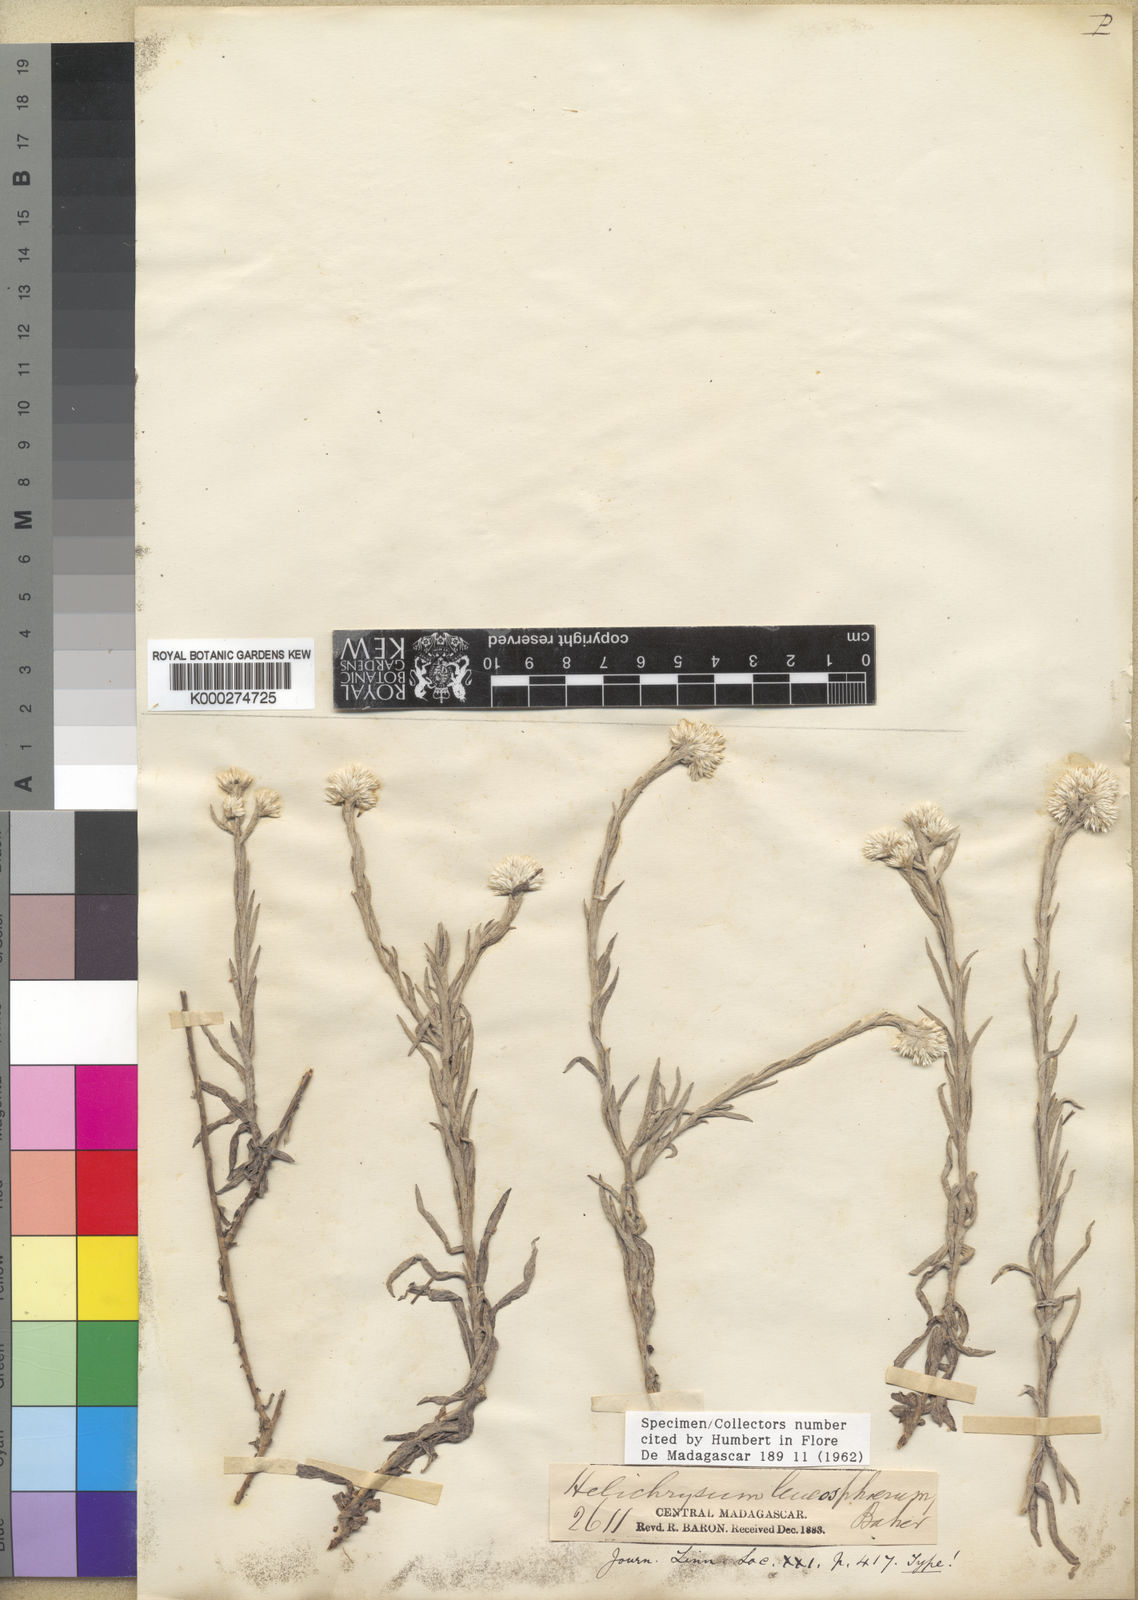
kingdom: Plantae
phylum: Tracheophyta
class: Magnoliopsida
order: Asterales
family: Asteraceae
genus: Helichrysum
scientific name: Helichrysum leucosphaerum
